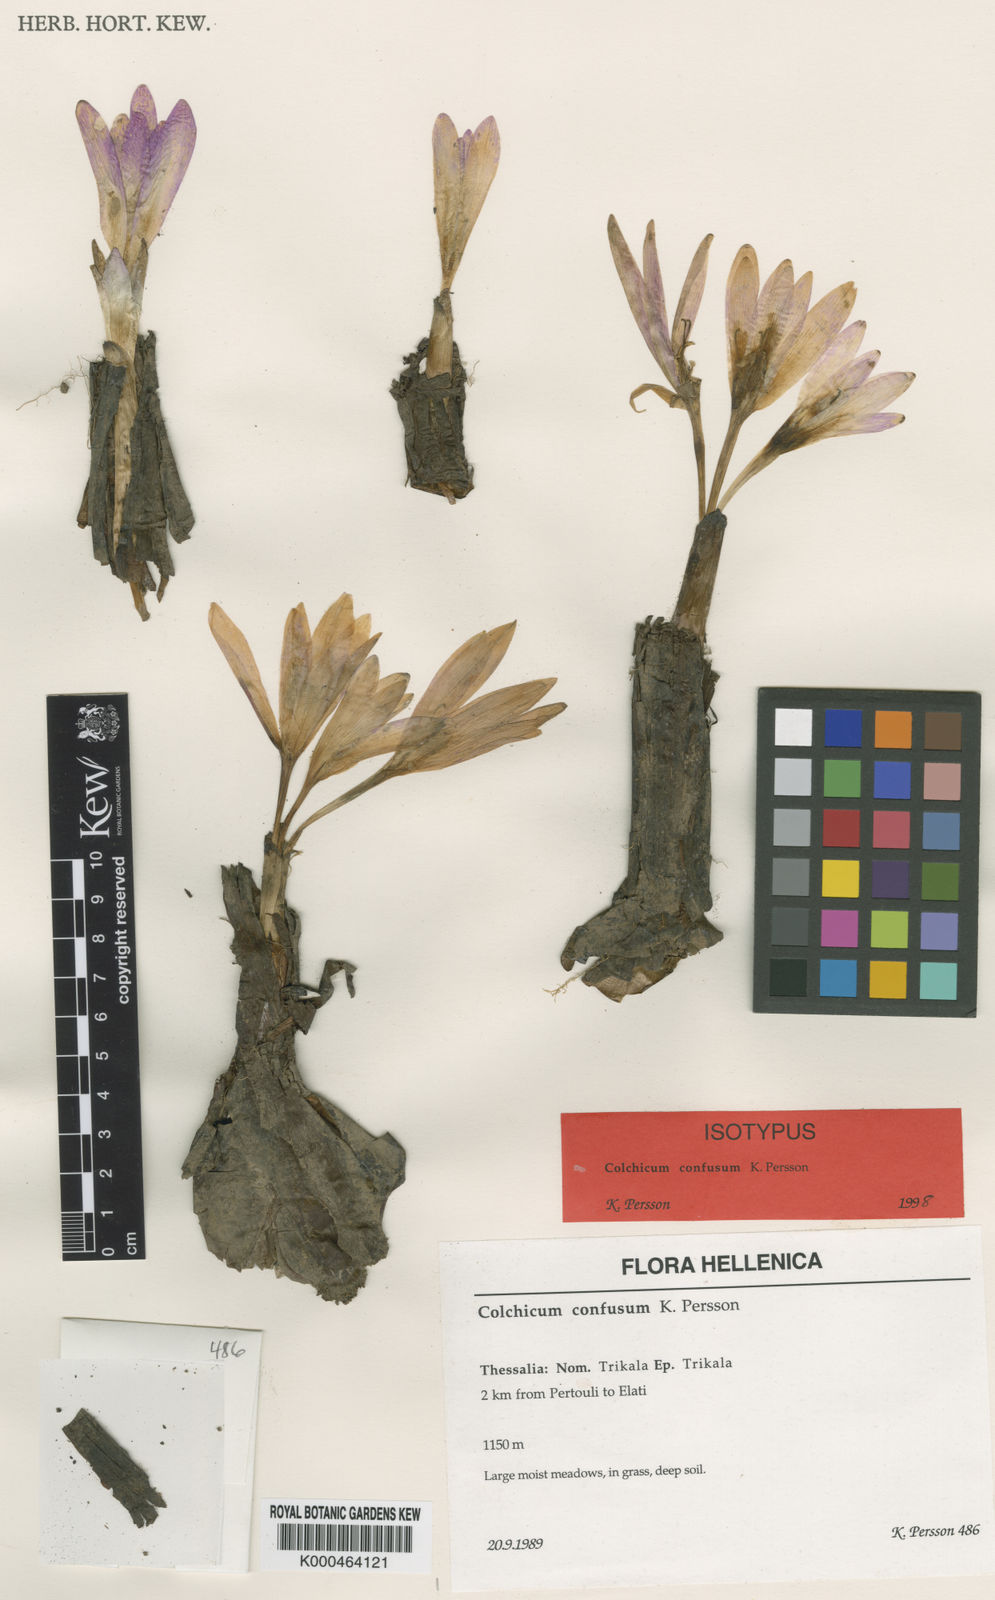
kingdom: Plantae
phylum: Tracheophyta
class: Liliopsida
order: Liliales
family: Colchicaceae
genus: Colchicum
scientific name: Colchicum confusum
